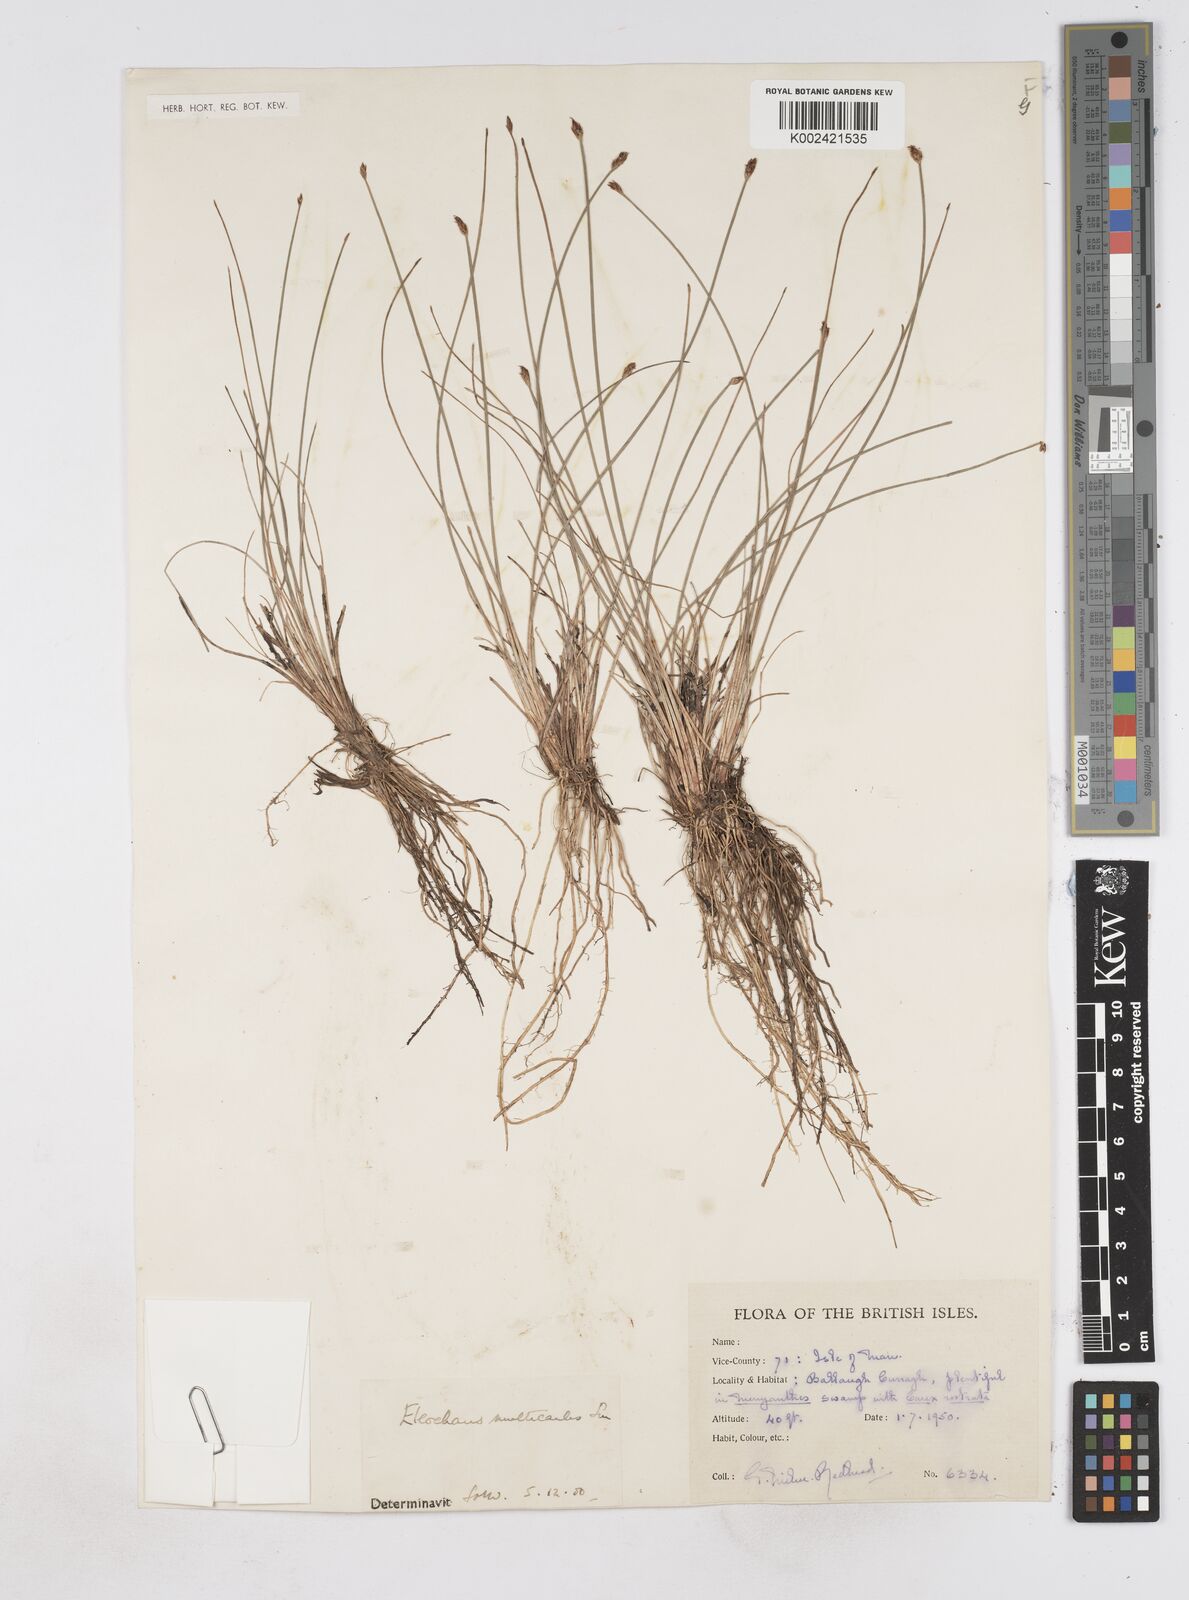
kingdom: Plantae
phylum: Tracheophyta
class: Liliopsida
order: Poales
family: Cyperaceae
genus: Eleocharis
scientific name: Eleocharis multicaulis
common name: Many-stalked spike-rush
